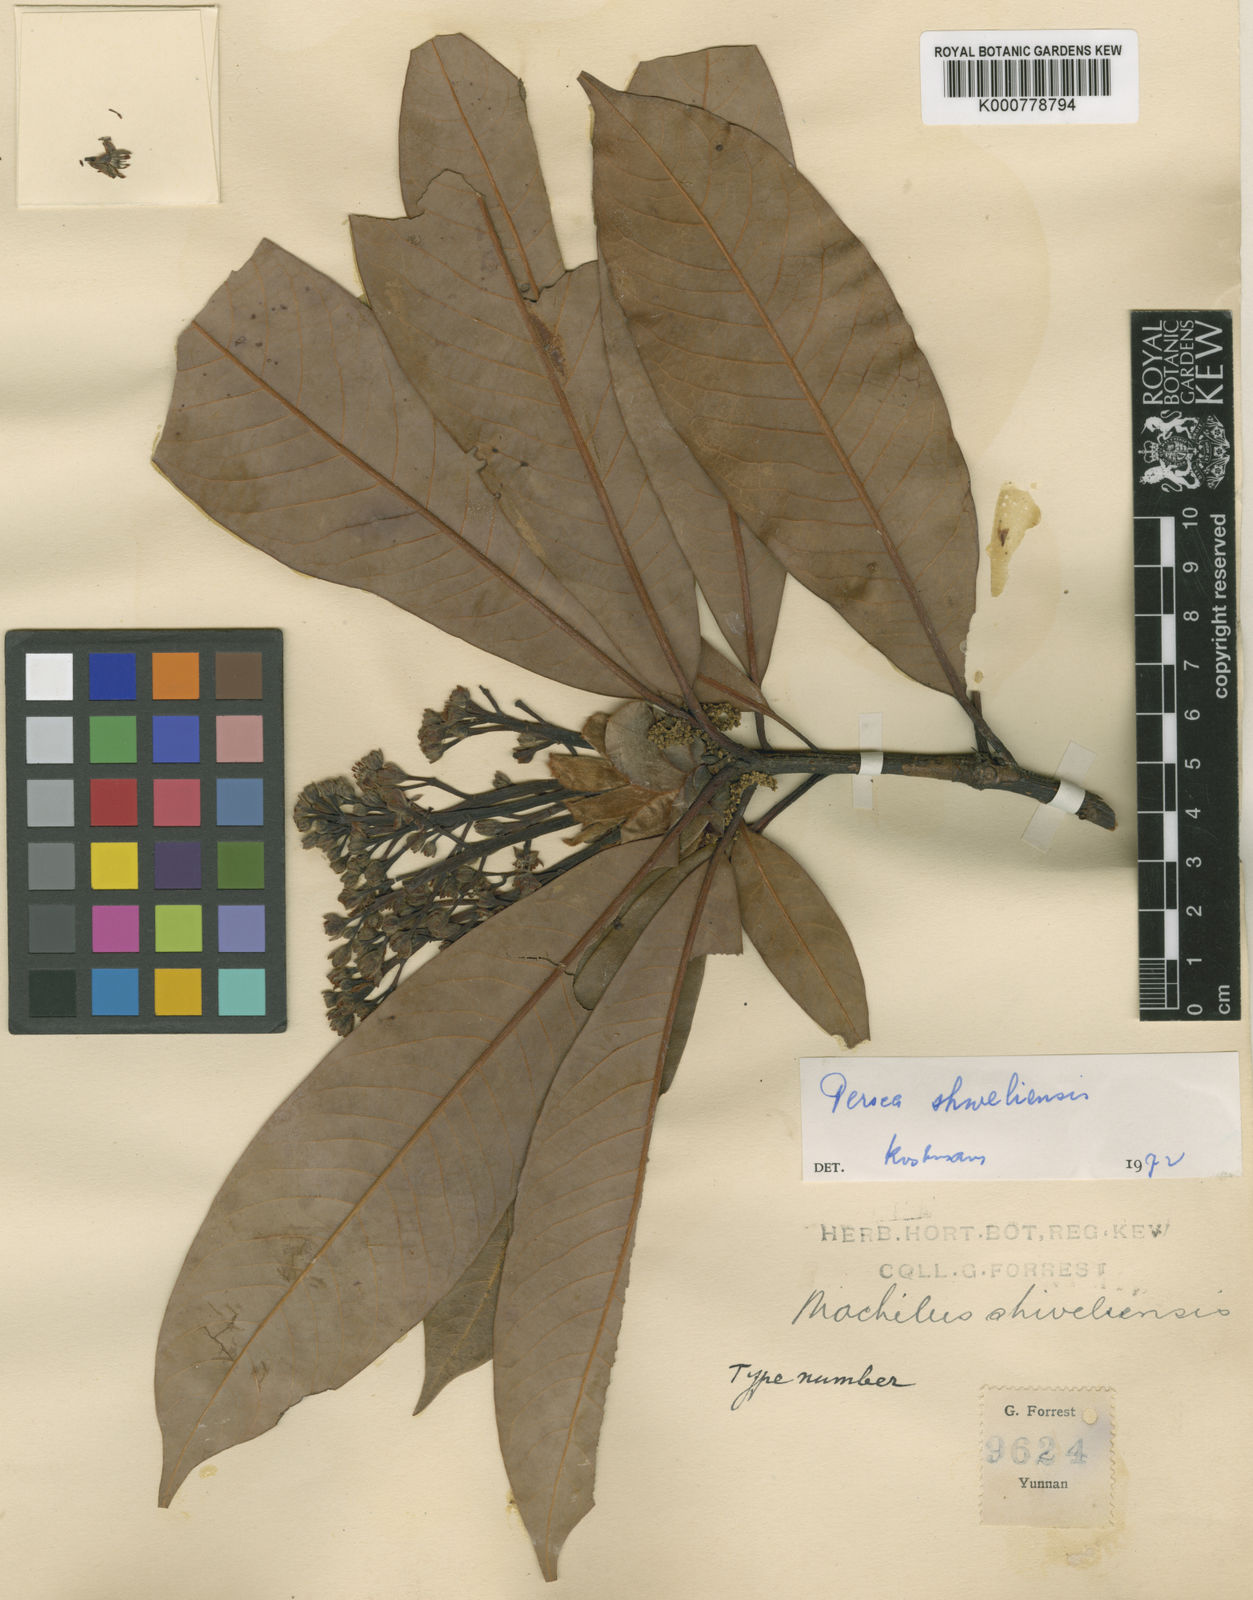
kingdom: Plantae
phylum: Tracheophyta
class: Magnoliopsida
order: Laurales
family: Lauraceae
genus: Machilus
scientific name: Machilus shweliensis
